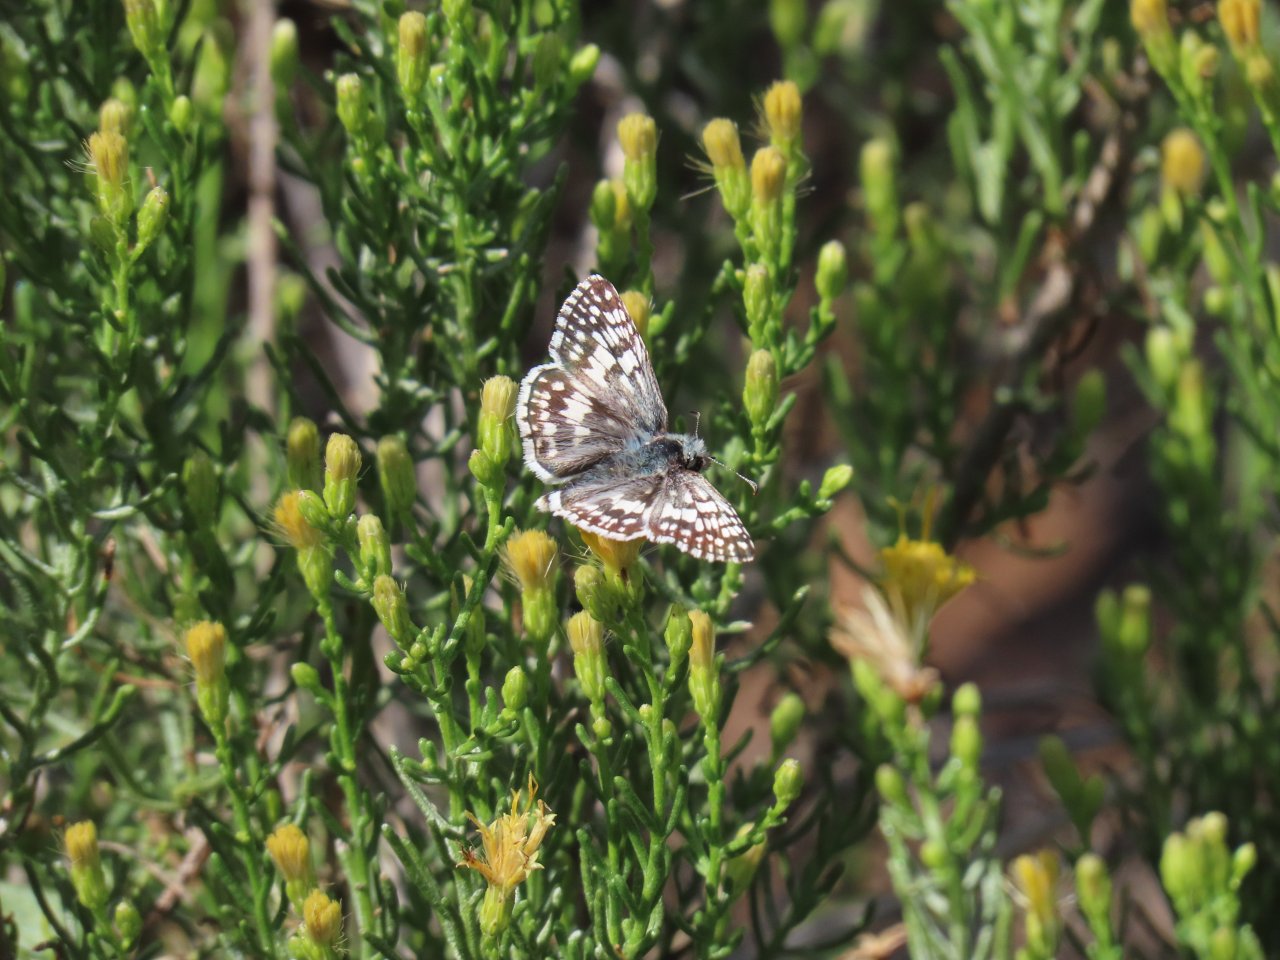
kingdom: Animalia
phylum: Arthropoda
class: Insecta
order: Lepidoptera
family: Hesperiidae
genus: Pyrgus
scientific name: Pyrgus communis
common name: Common Checkered-Skipper
